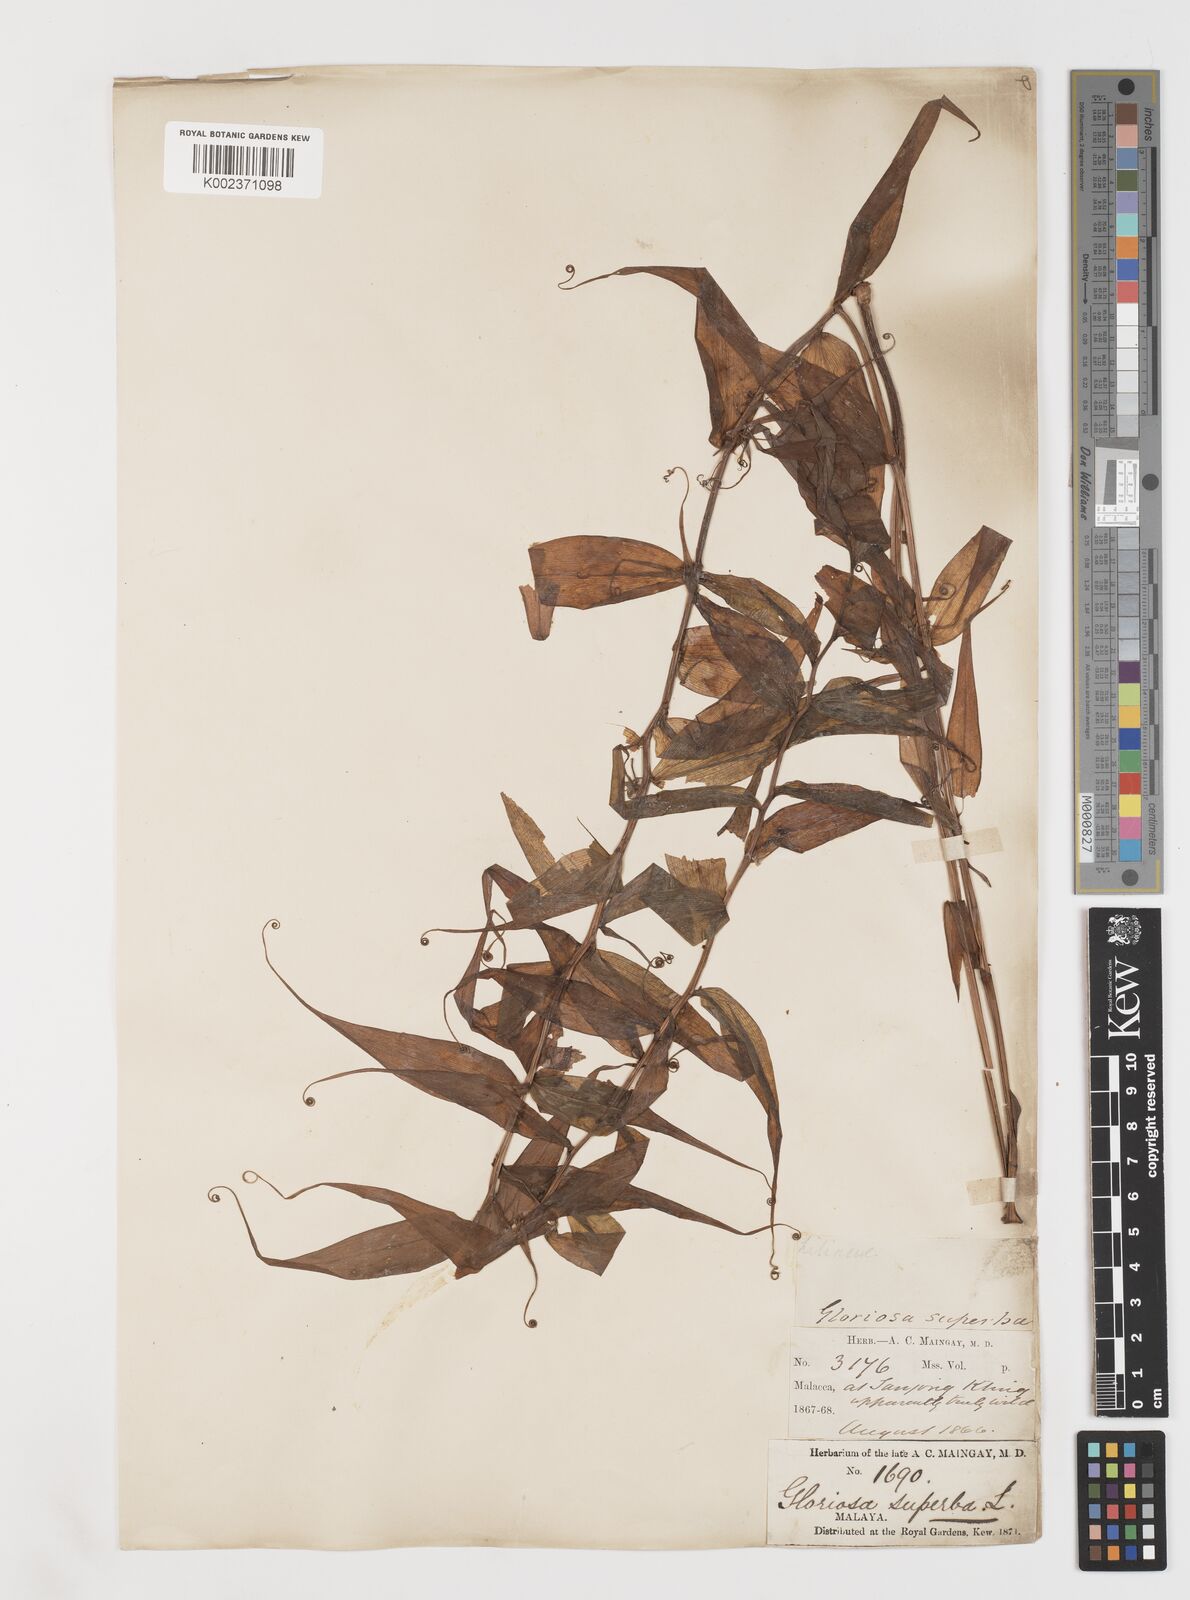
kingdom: Plantae
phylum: Tracheophyta
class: Liliopsida
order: Liliales
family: Colchicaceae
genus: Gloriosa
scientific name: Gloriosa superba
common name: Flame lily
